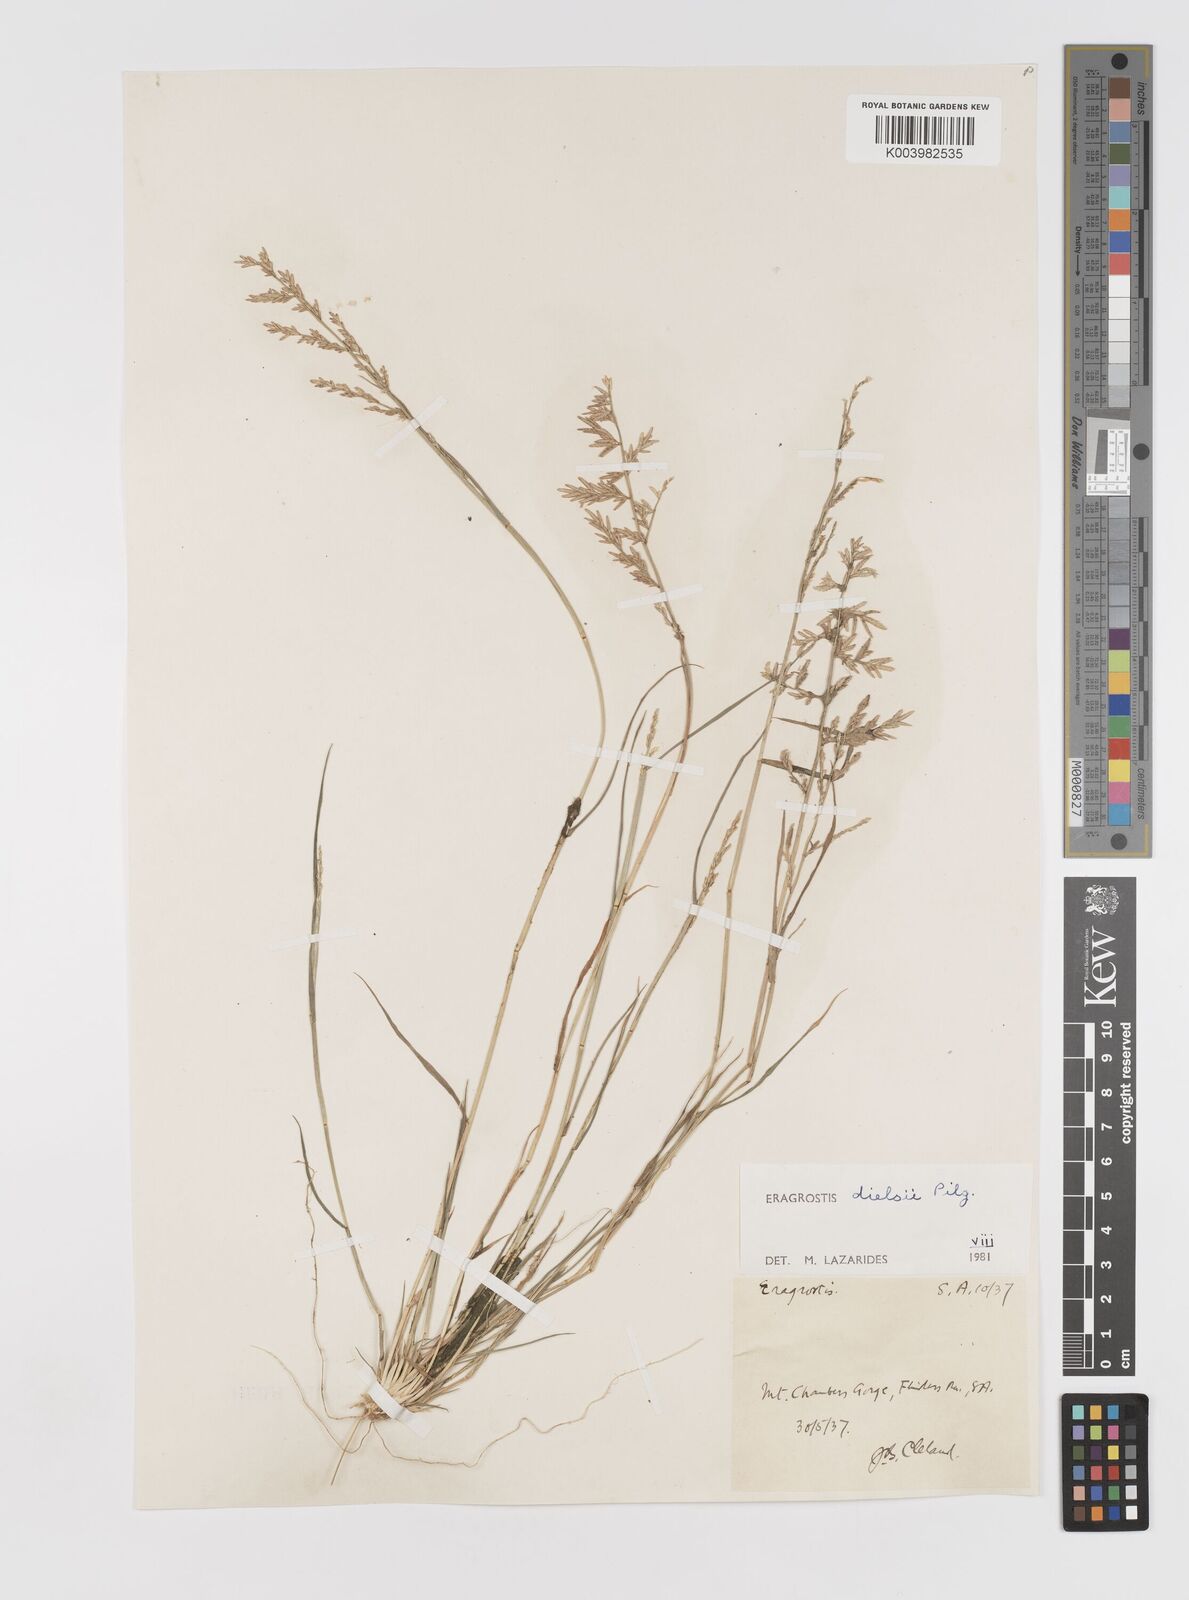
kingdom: Plantae
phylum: Tracheophyta
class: Liliopsida
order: Poales
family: Poaceae
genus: Eragrostis
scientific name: Eragrostis dielsii
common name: Lovegrass
